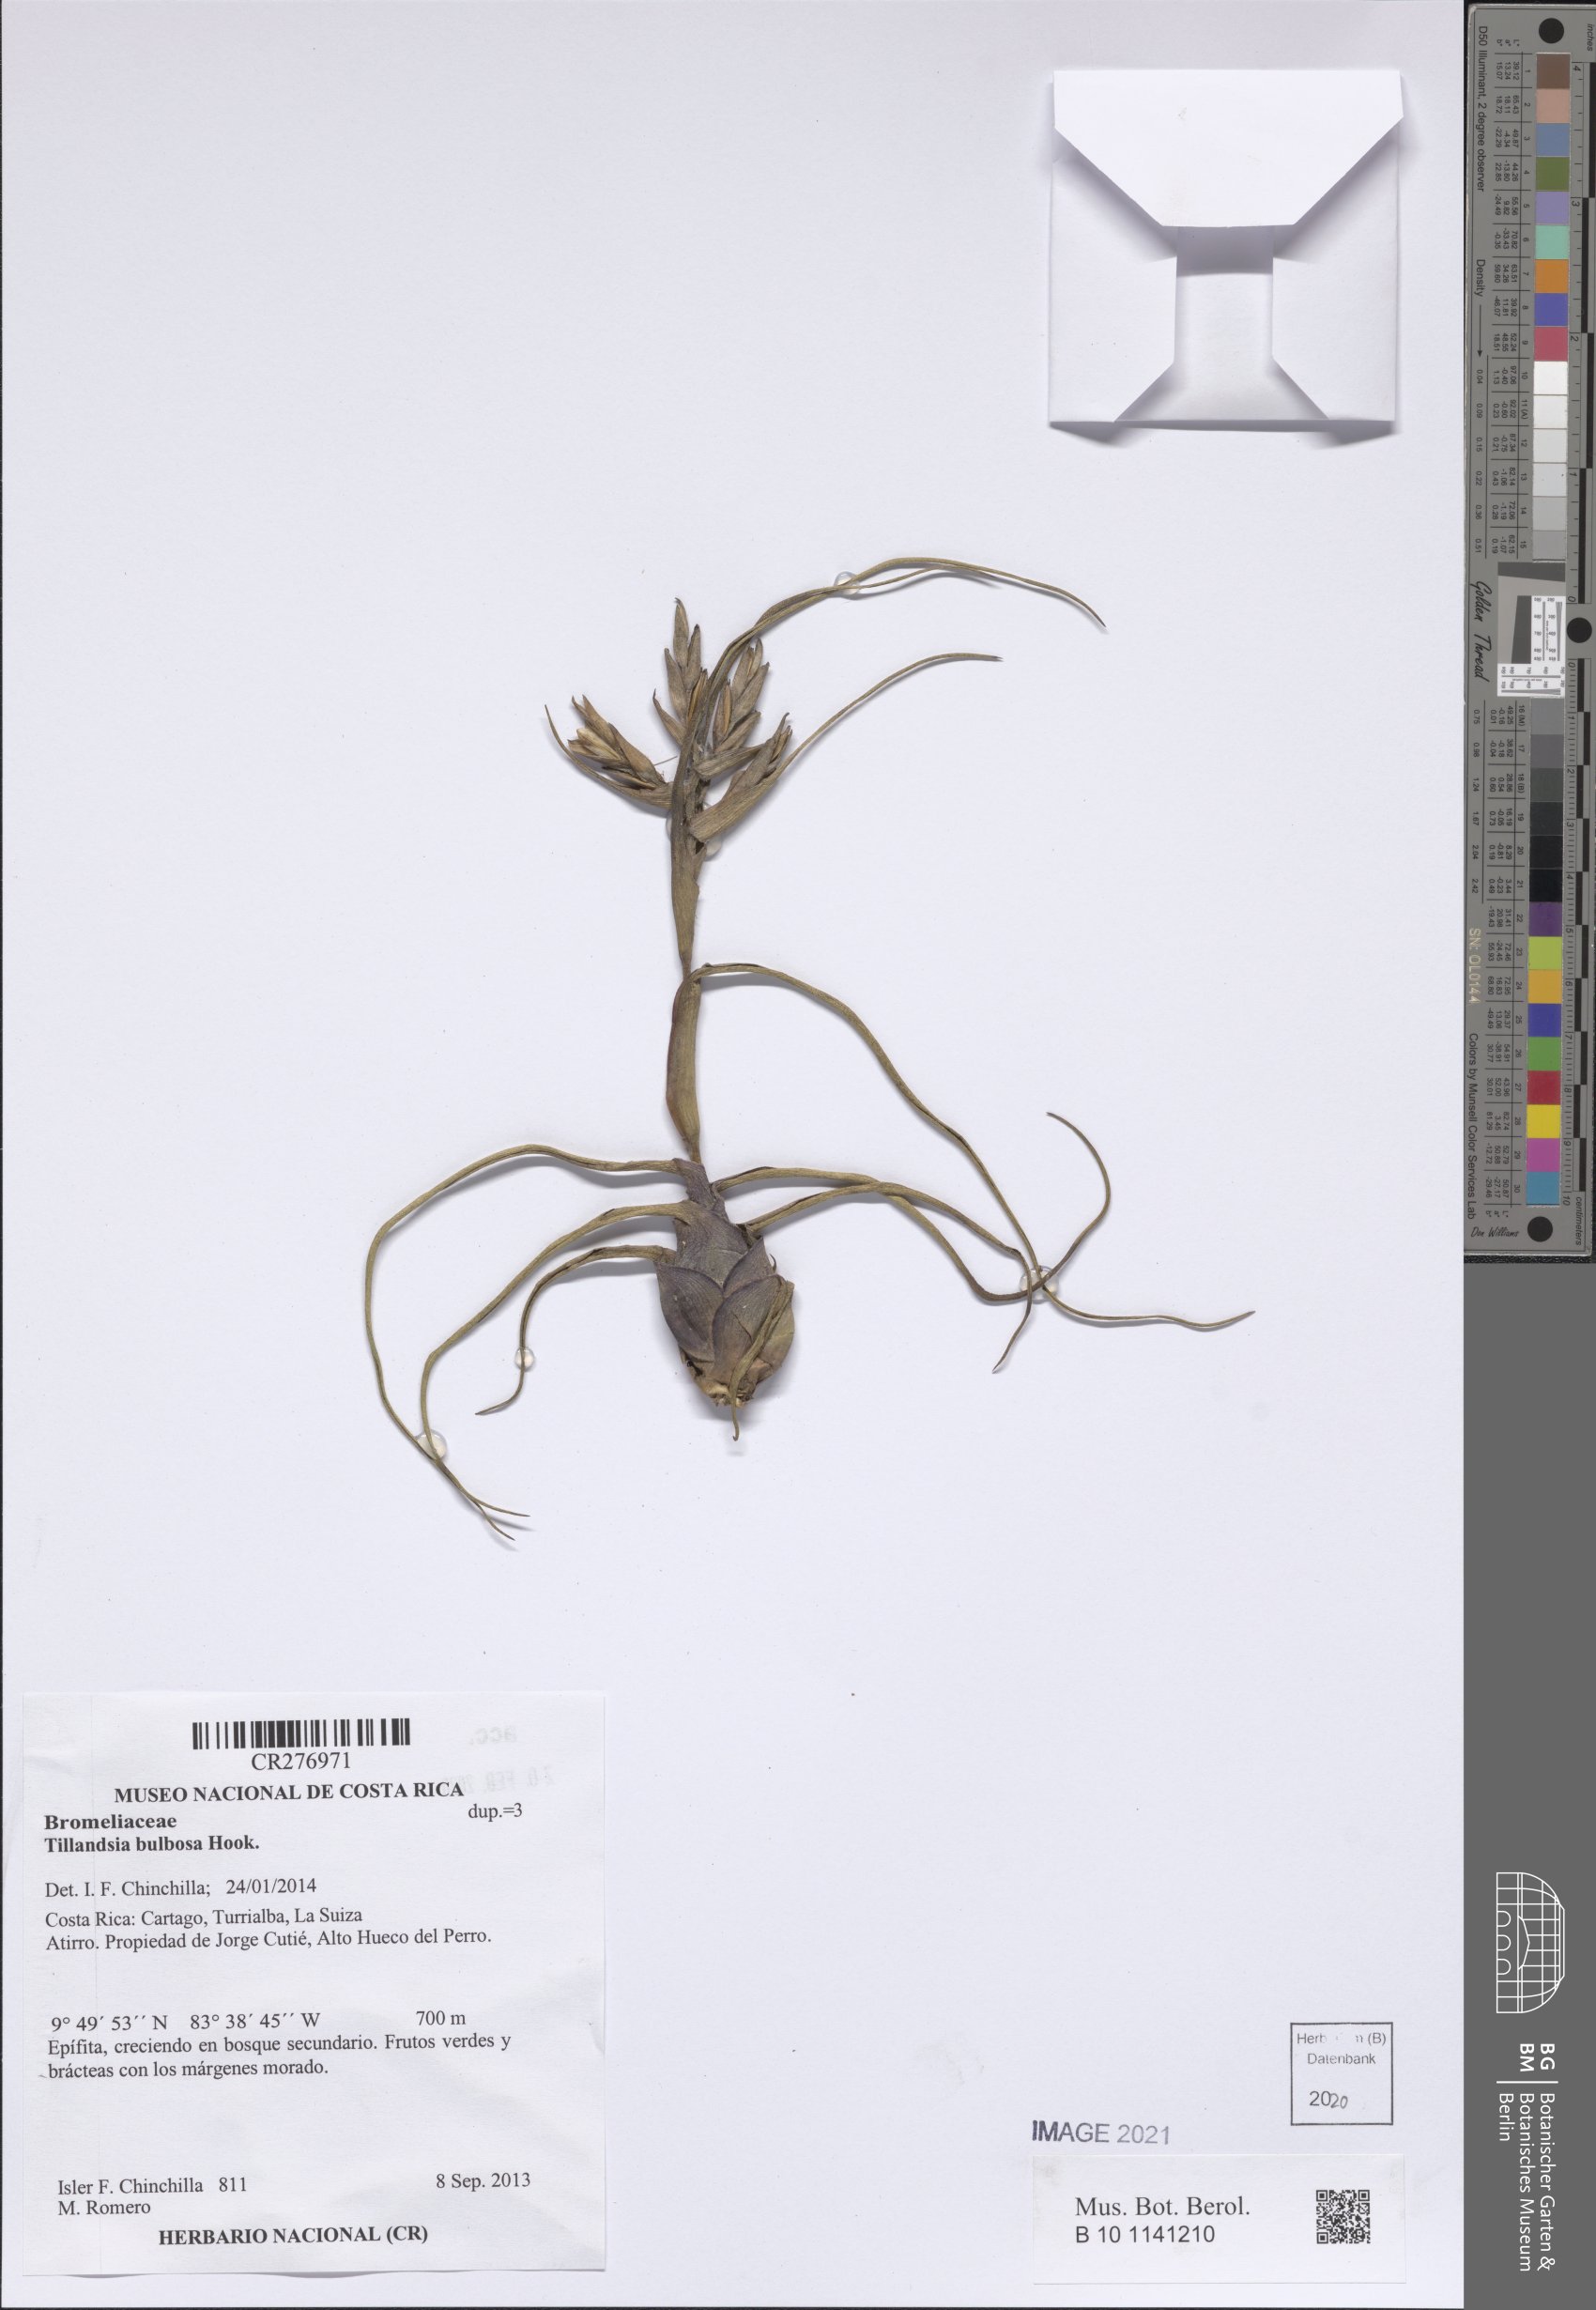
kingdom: Plantae
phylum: Tracheophyta
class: Liliopsida
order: Poales
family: Bromeliaceae
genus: Tillandsia
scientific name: Tillandsia bulbosa
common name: Bulbous airplant
